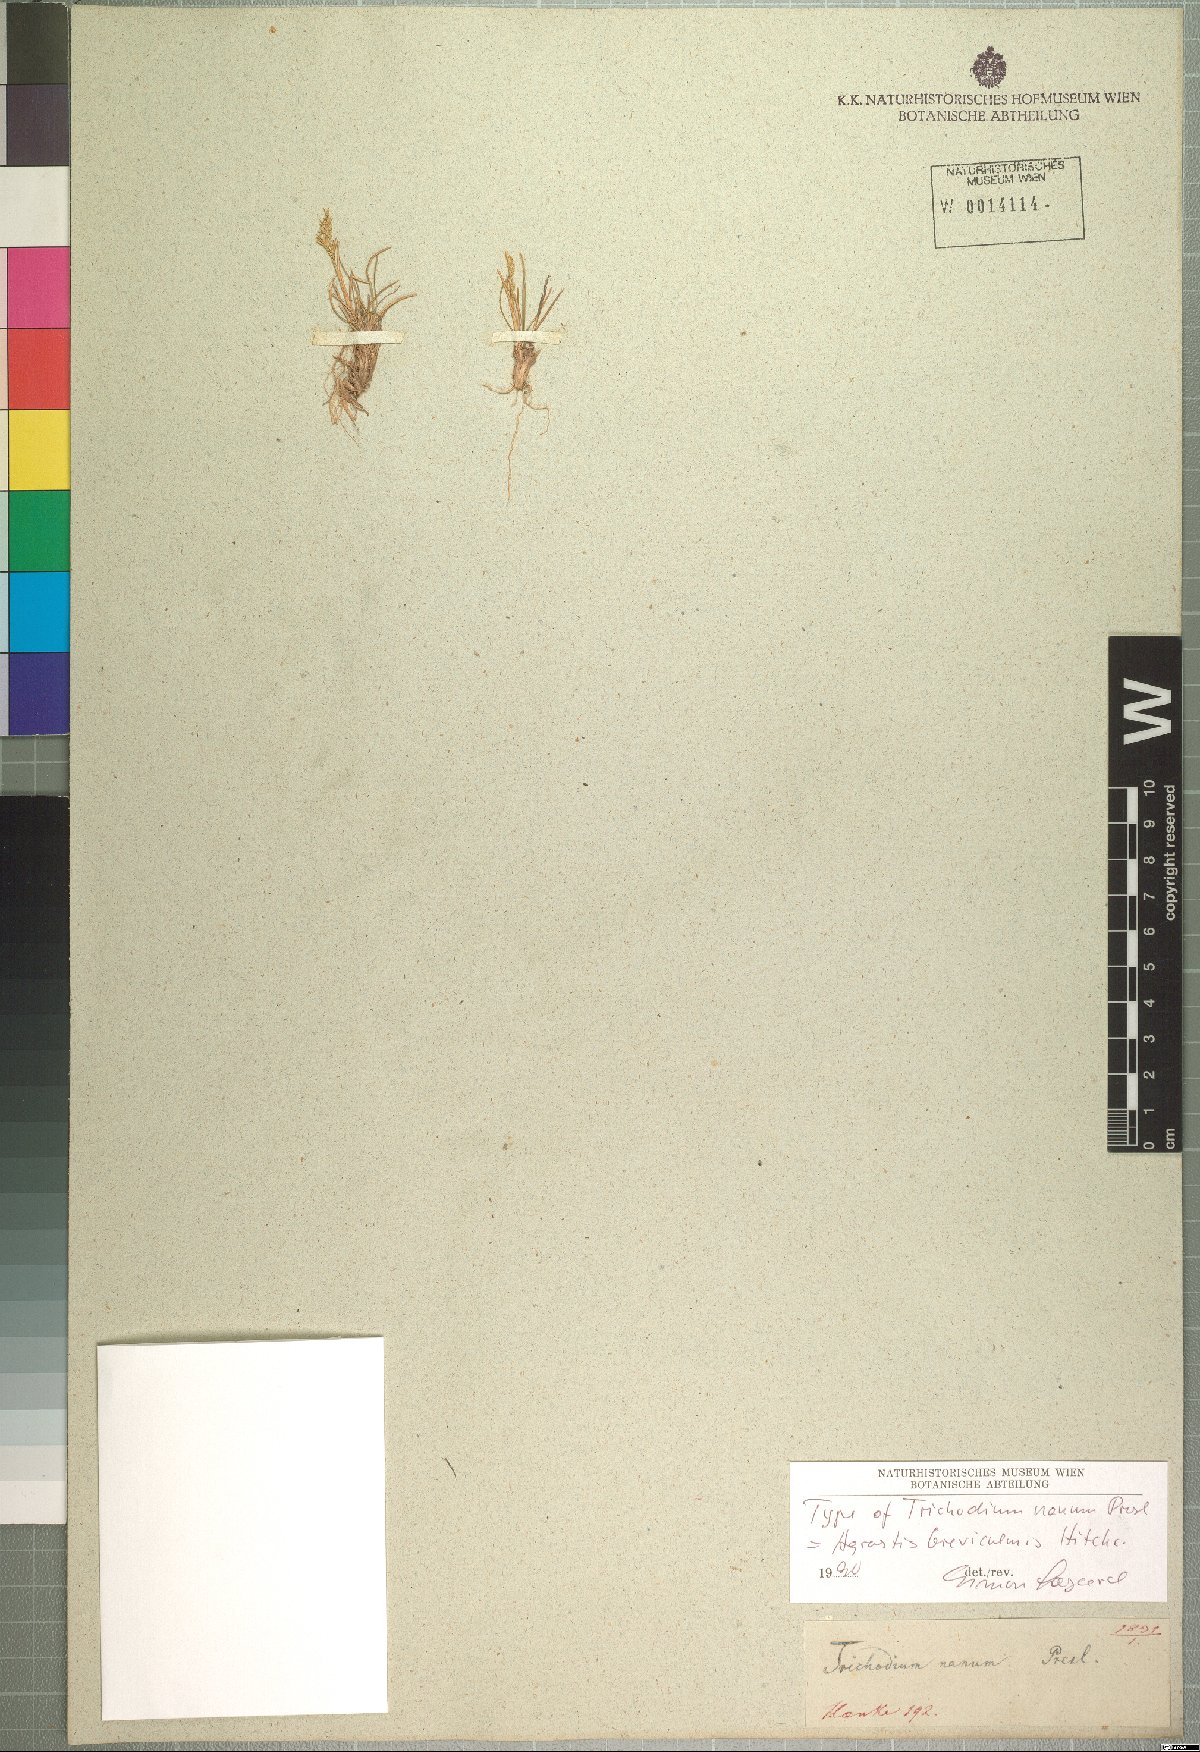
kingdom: Plantae
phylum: Tracheophyta
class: Liliopsida
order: Poales
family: Poaceae
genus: Agrostis
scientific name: Agrostis breviculmis
